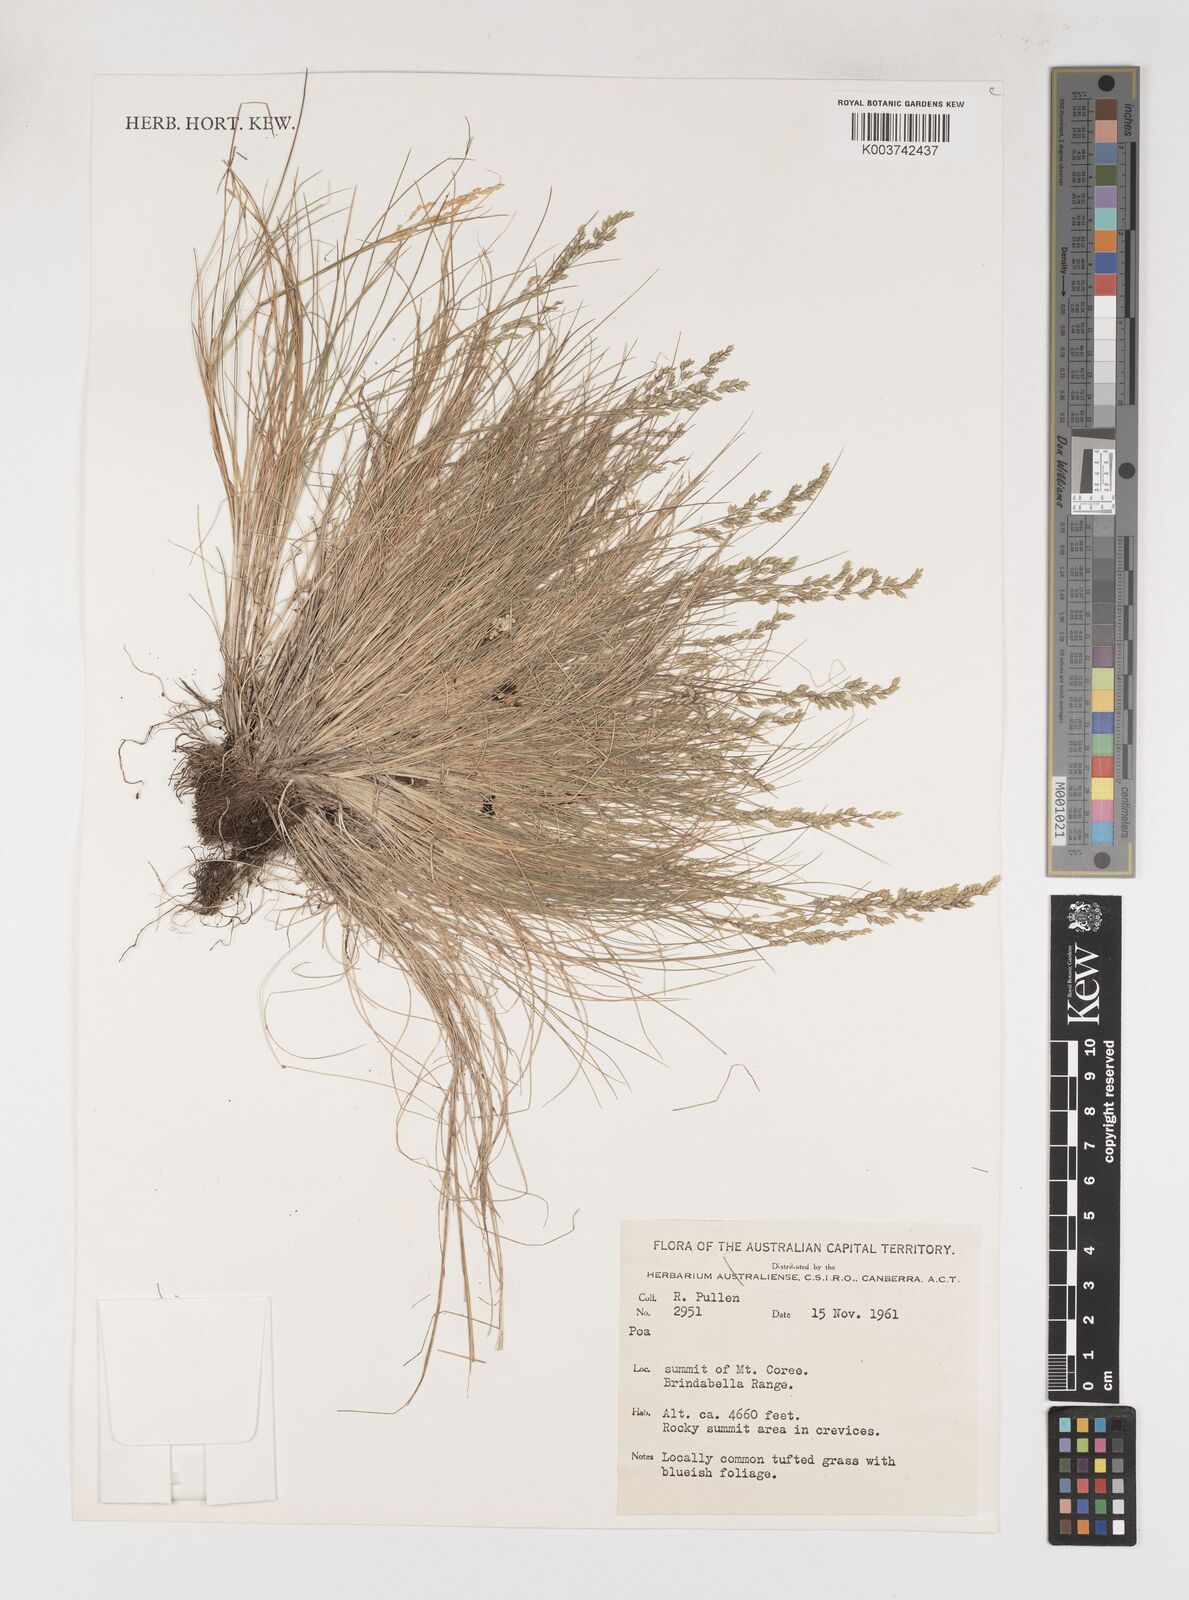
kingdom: Plantae
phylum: Tracheophyta
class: Liliopsida
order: Poales
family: Poaceae
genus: Poa
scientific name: Poa
